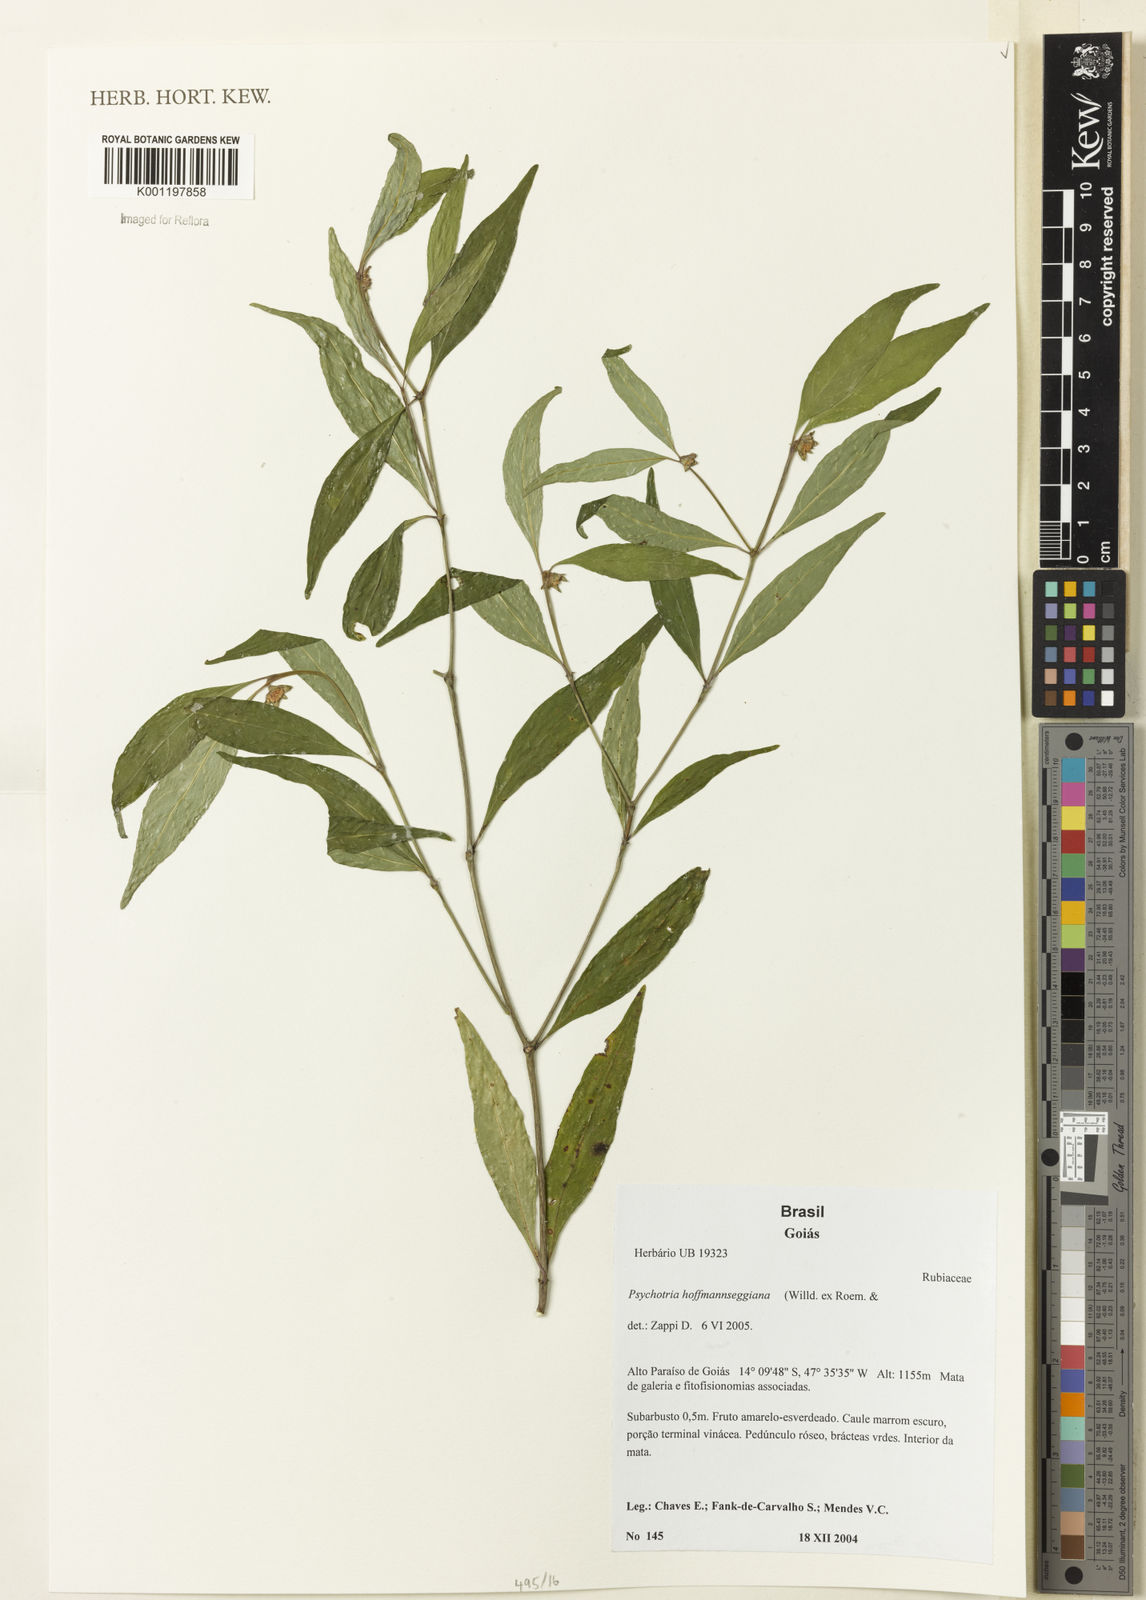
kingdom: Plantae
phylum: Tracheophyta
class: Magnoliopsida
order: Gentianales
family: Rubiaceae
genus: Psychotria
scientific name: Psychotria
